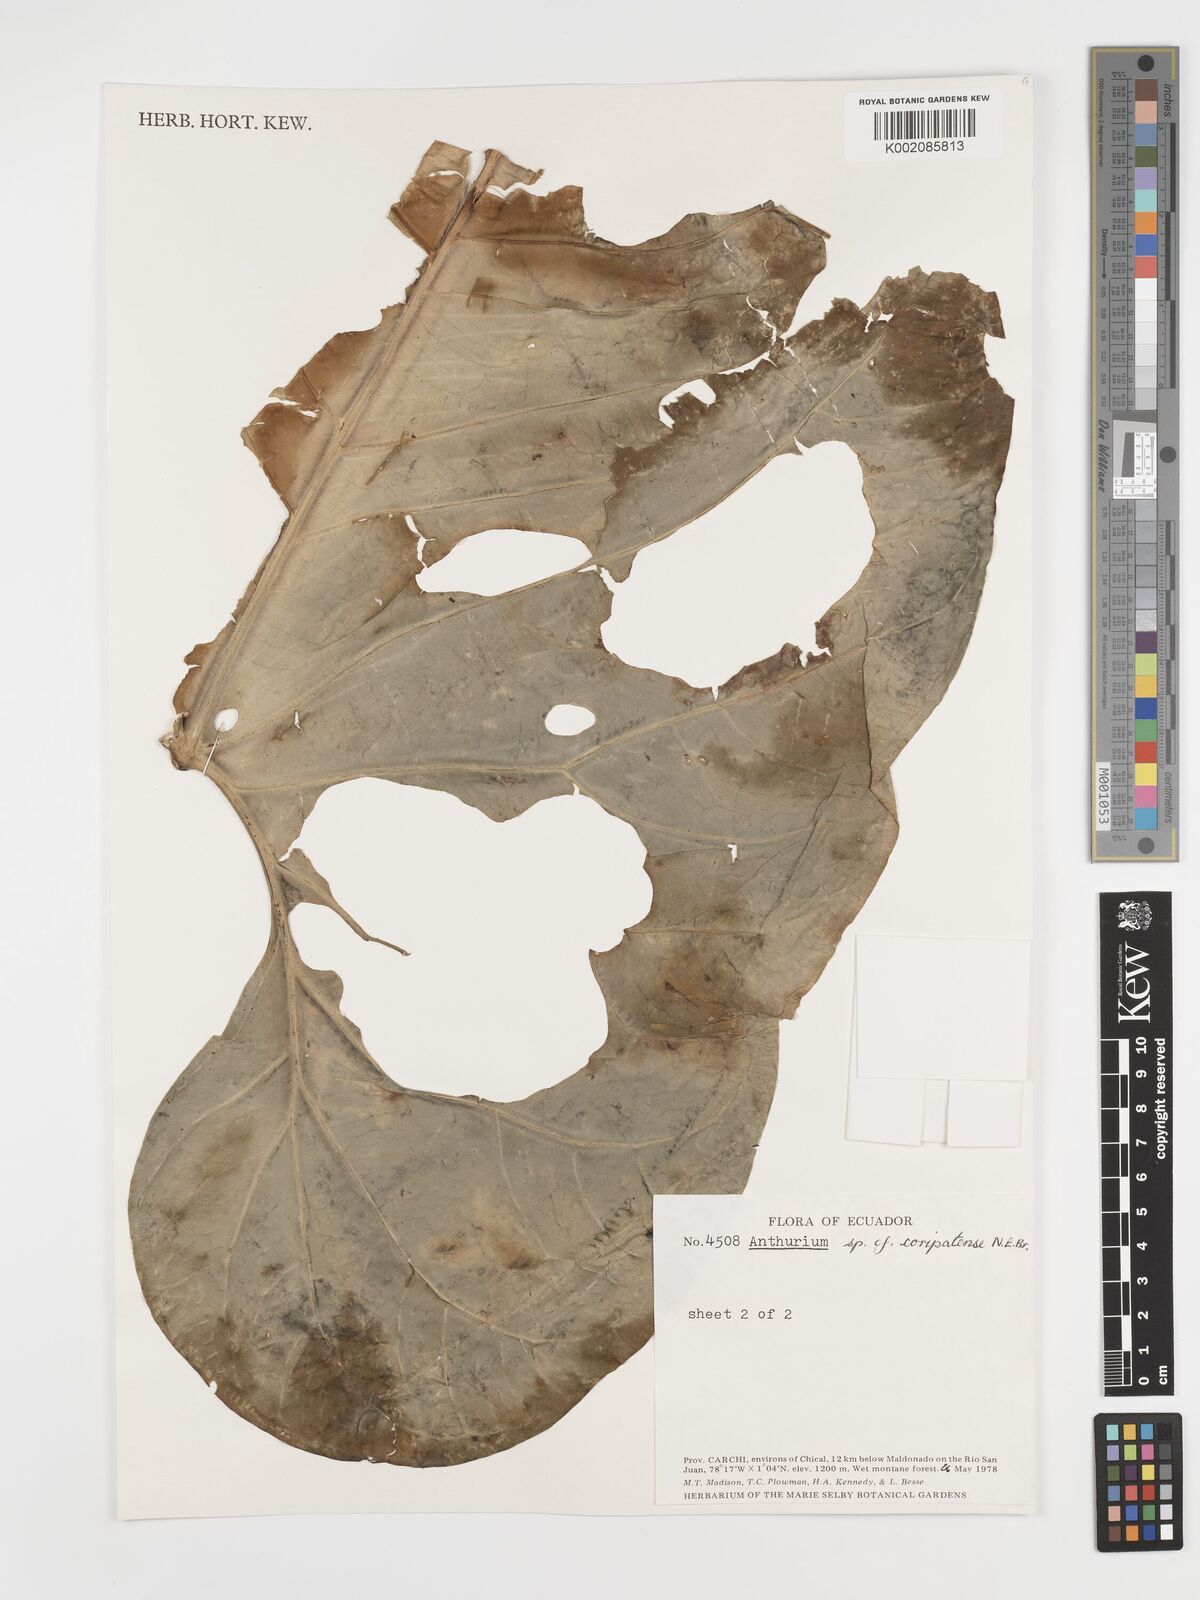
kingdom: Plantae
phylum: Tracheophyta
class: Liliopsida
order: Alismatales
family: Araceae
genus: Anthurium
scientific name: Anthurium coripatense
